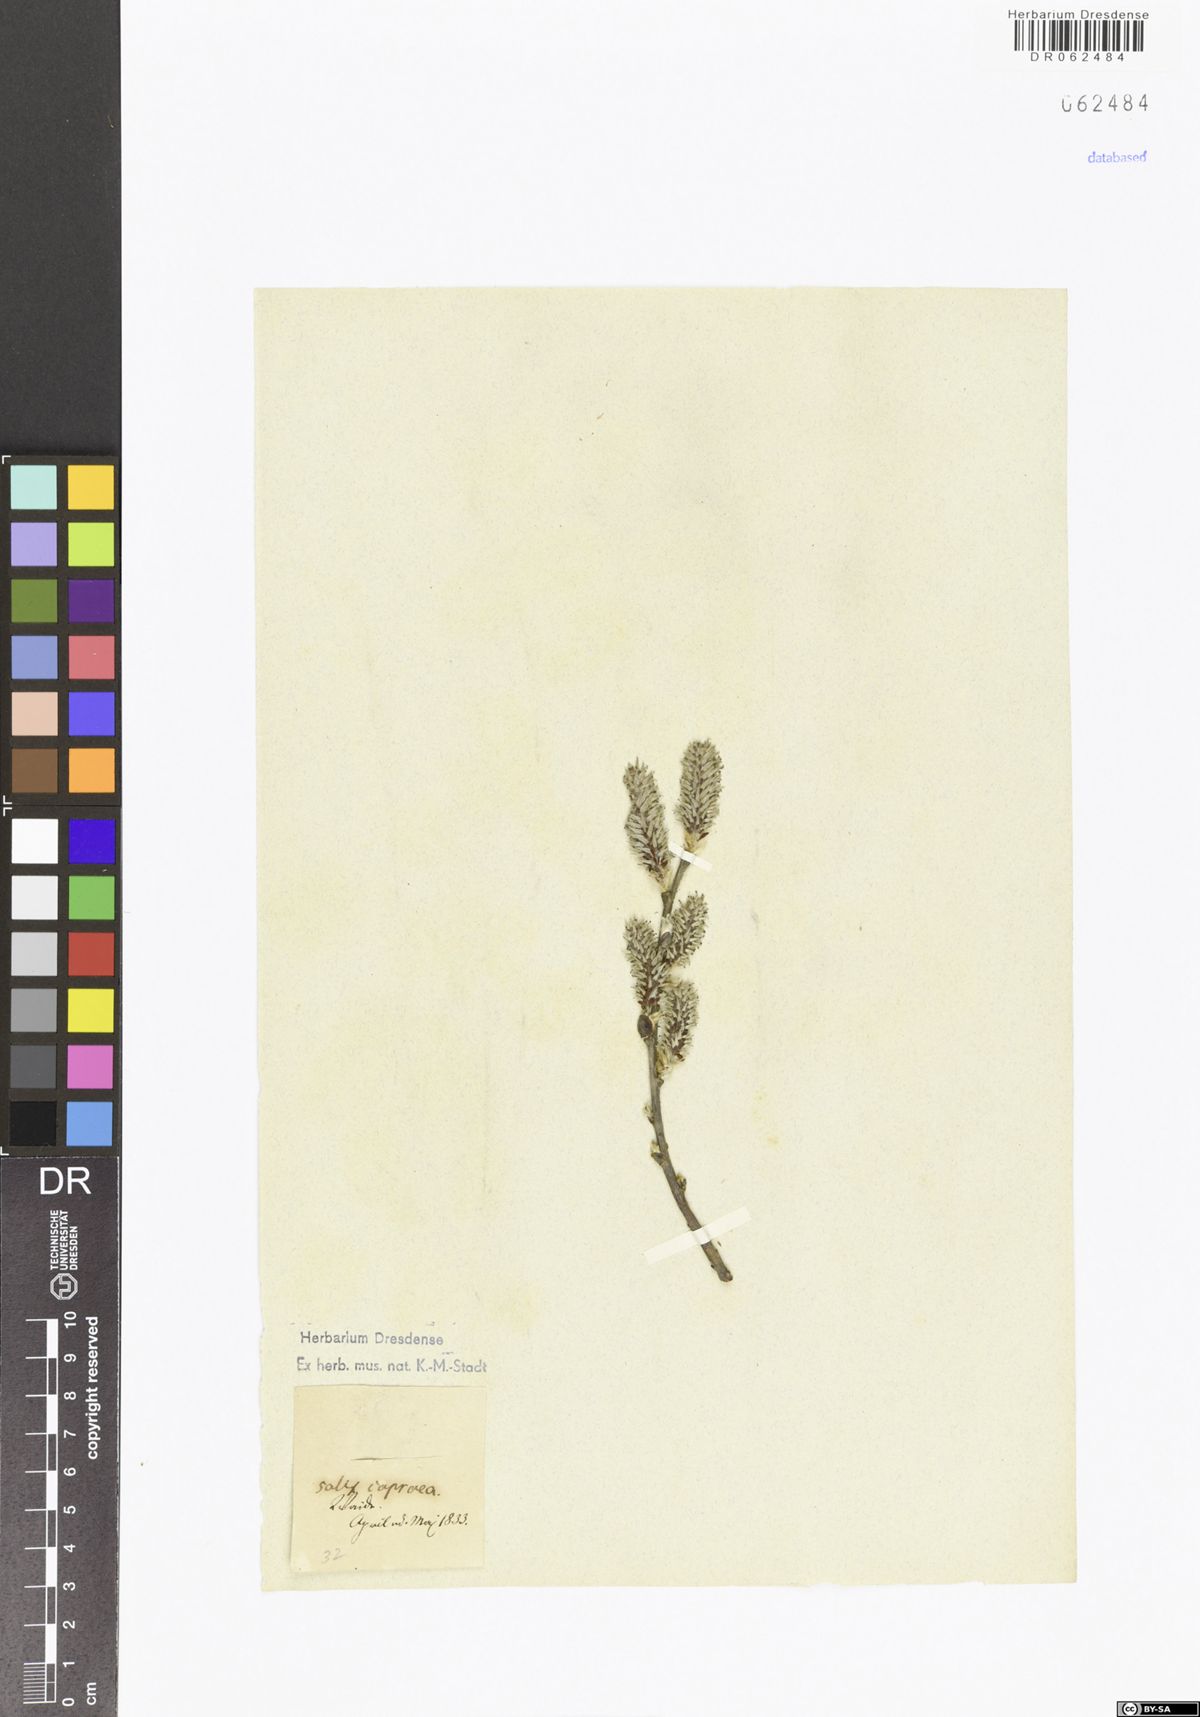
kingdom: Plantae
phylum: Tracheophyta
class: Magnoliopsida
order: Malpighiales
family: Salicaceae
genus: Salix
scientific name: Salix caprea
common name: Goat willow
